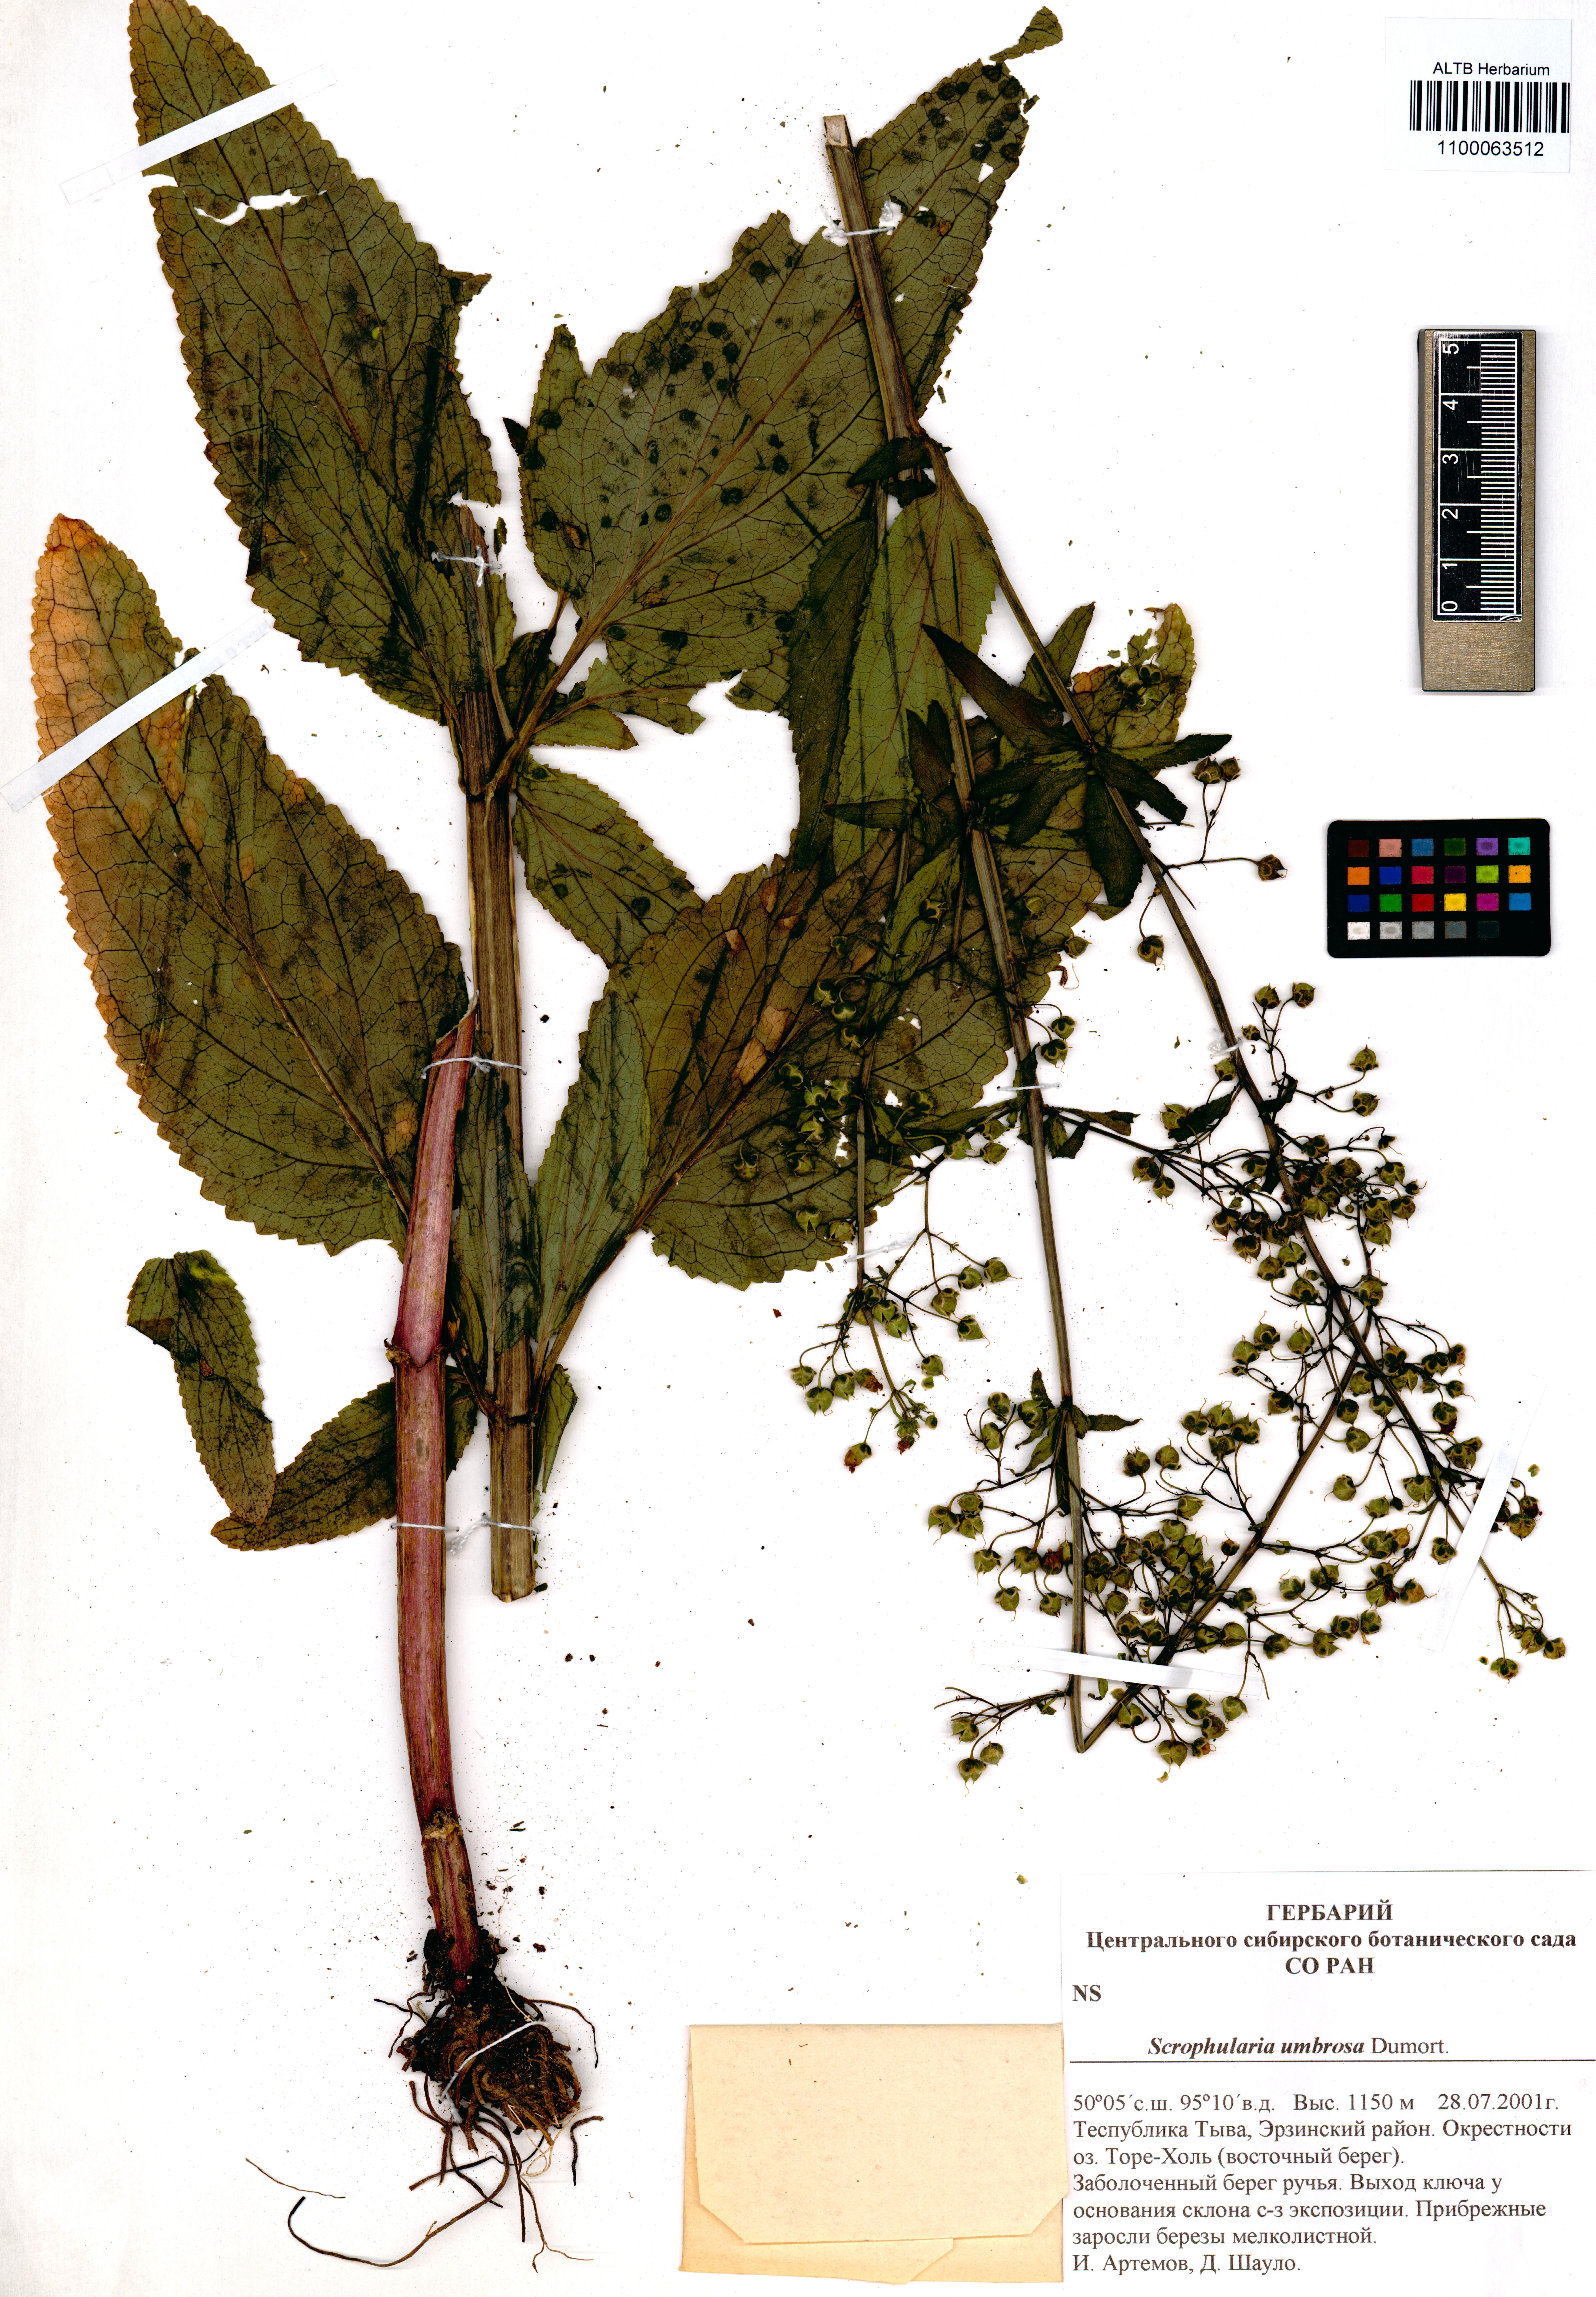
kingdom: Plantae
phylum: Tracheophyta
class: Magnoliopsida
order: Lamiales
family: Scrophulariaceae
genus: Scrophularia
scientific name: Scrophularia umbrosa
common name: Green figwort
